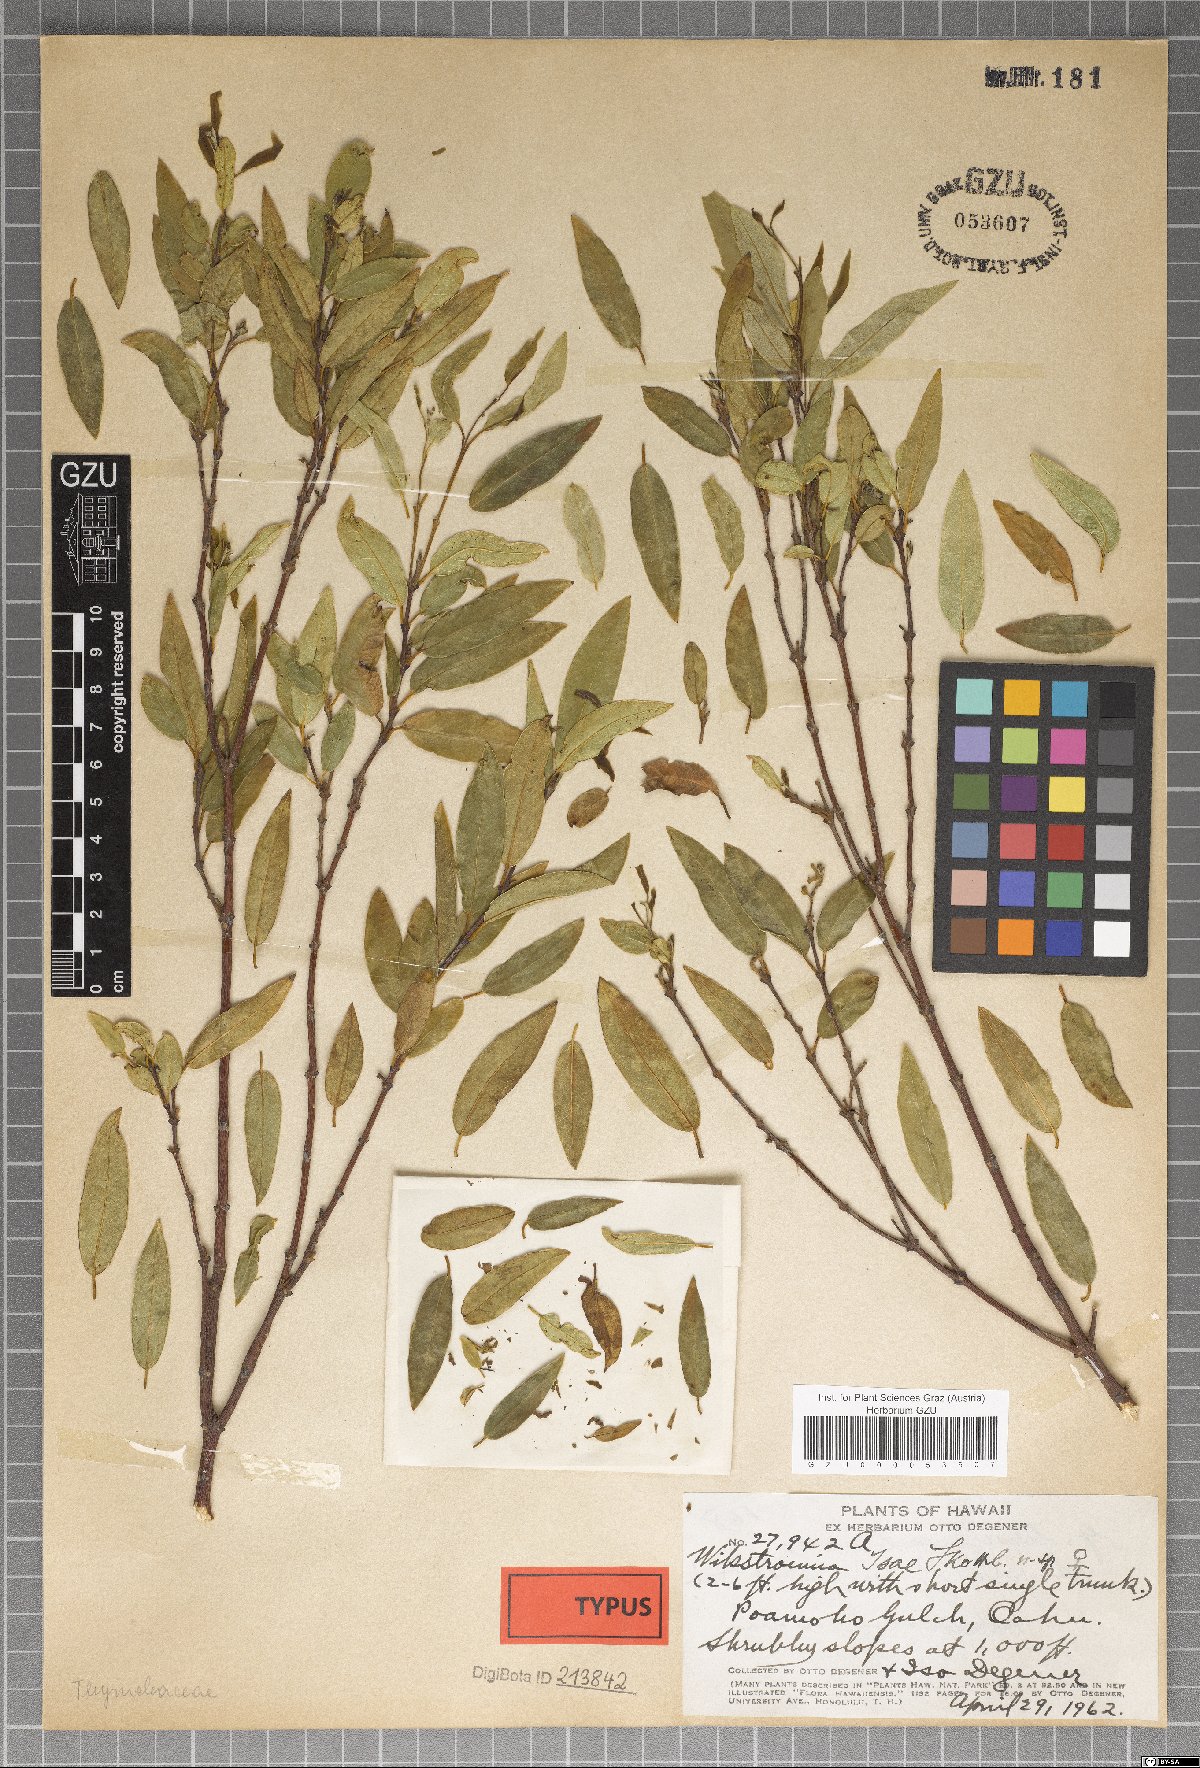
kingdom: Plantae
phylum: Tracheophyta
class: Magnoliopsida
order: Malvales
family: Thymelaeaceae
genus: Wikstroemia
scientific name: Wikstroemia oahuensis
